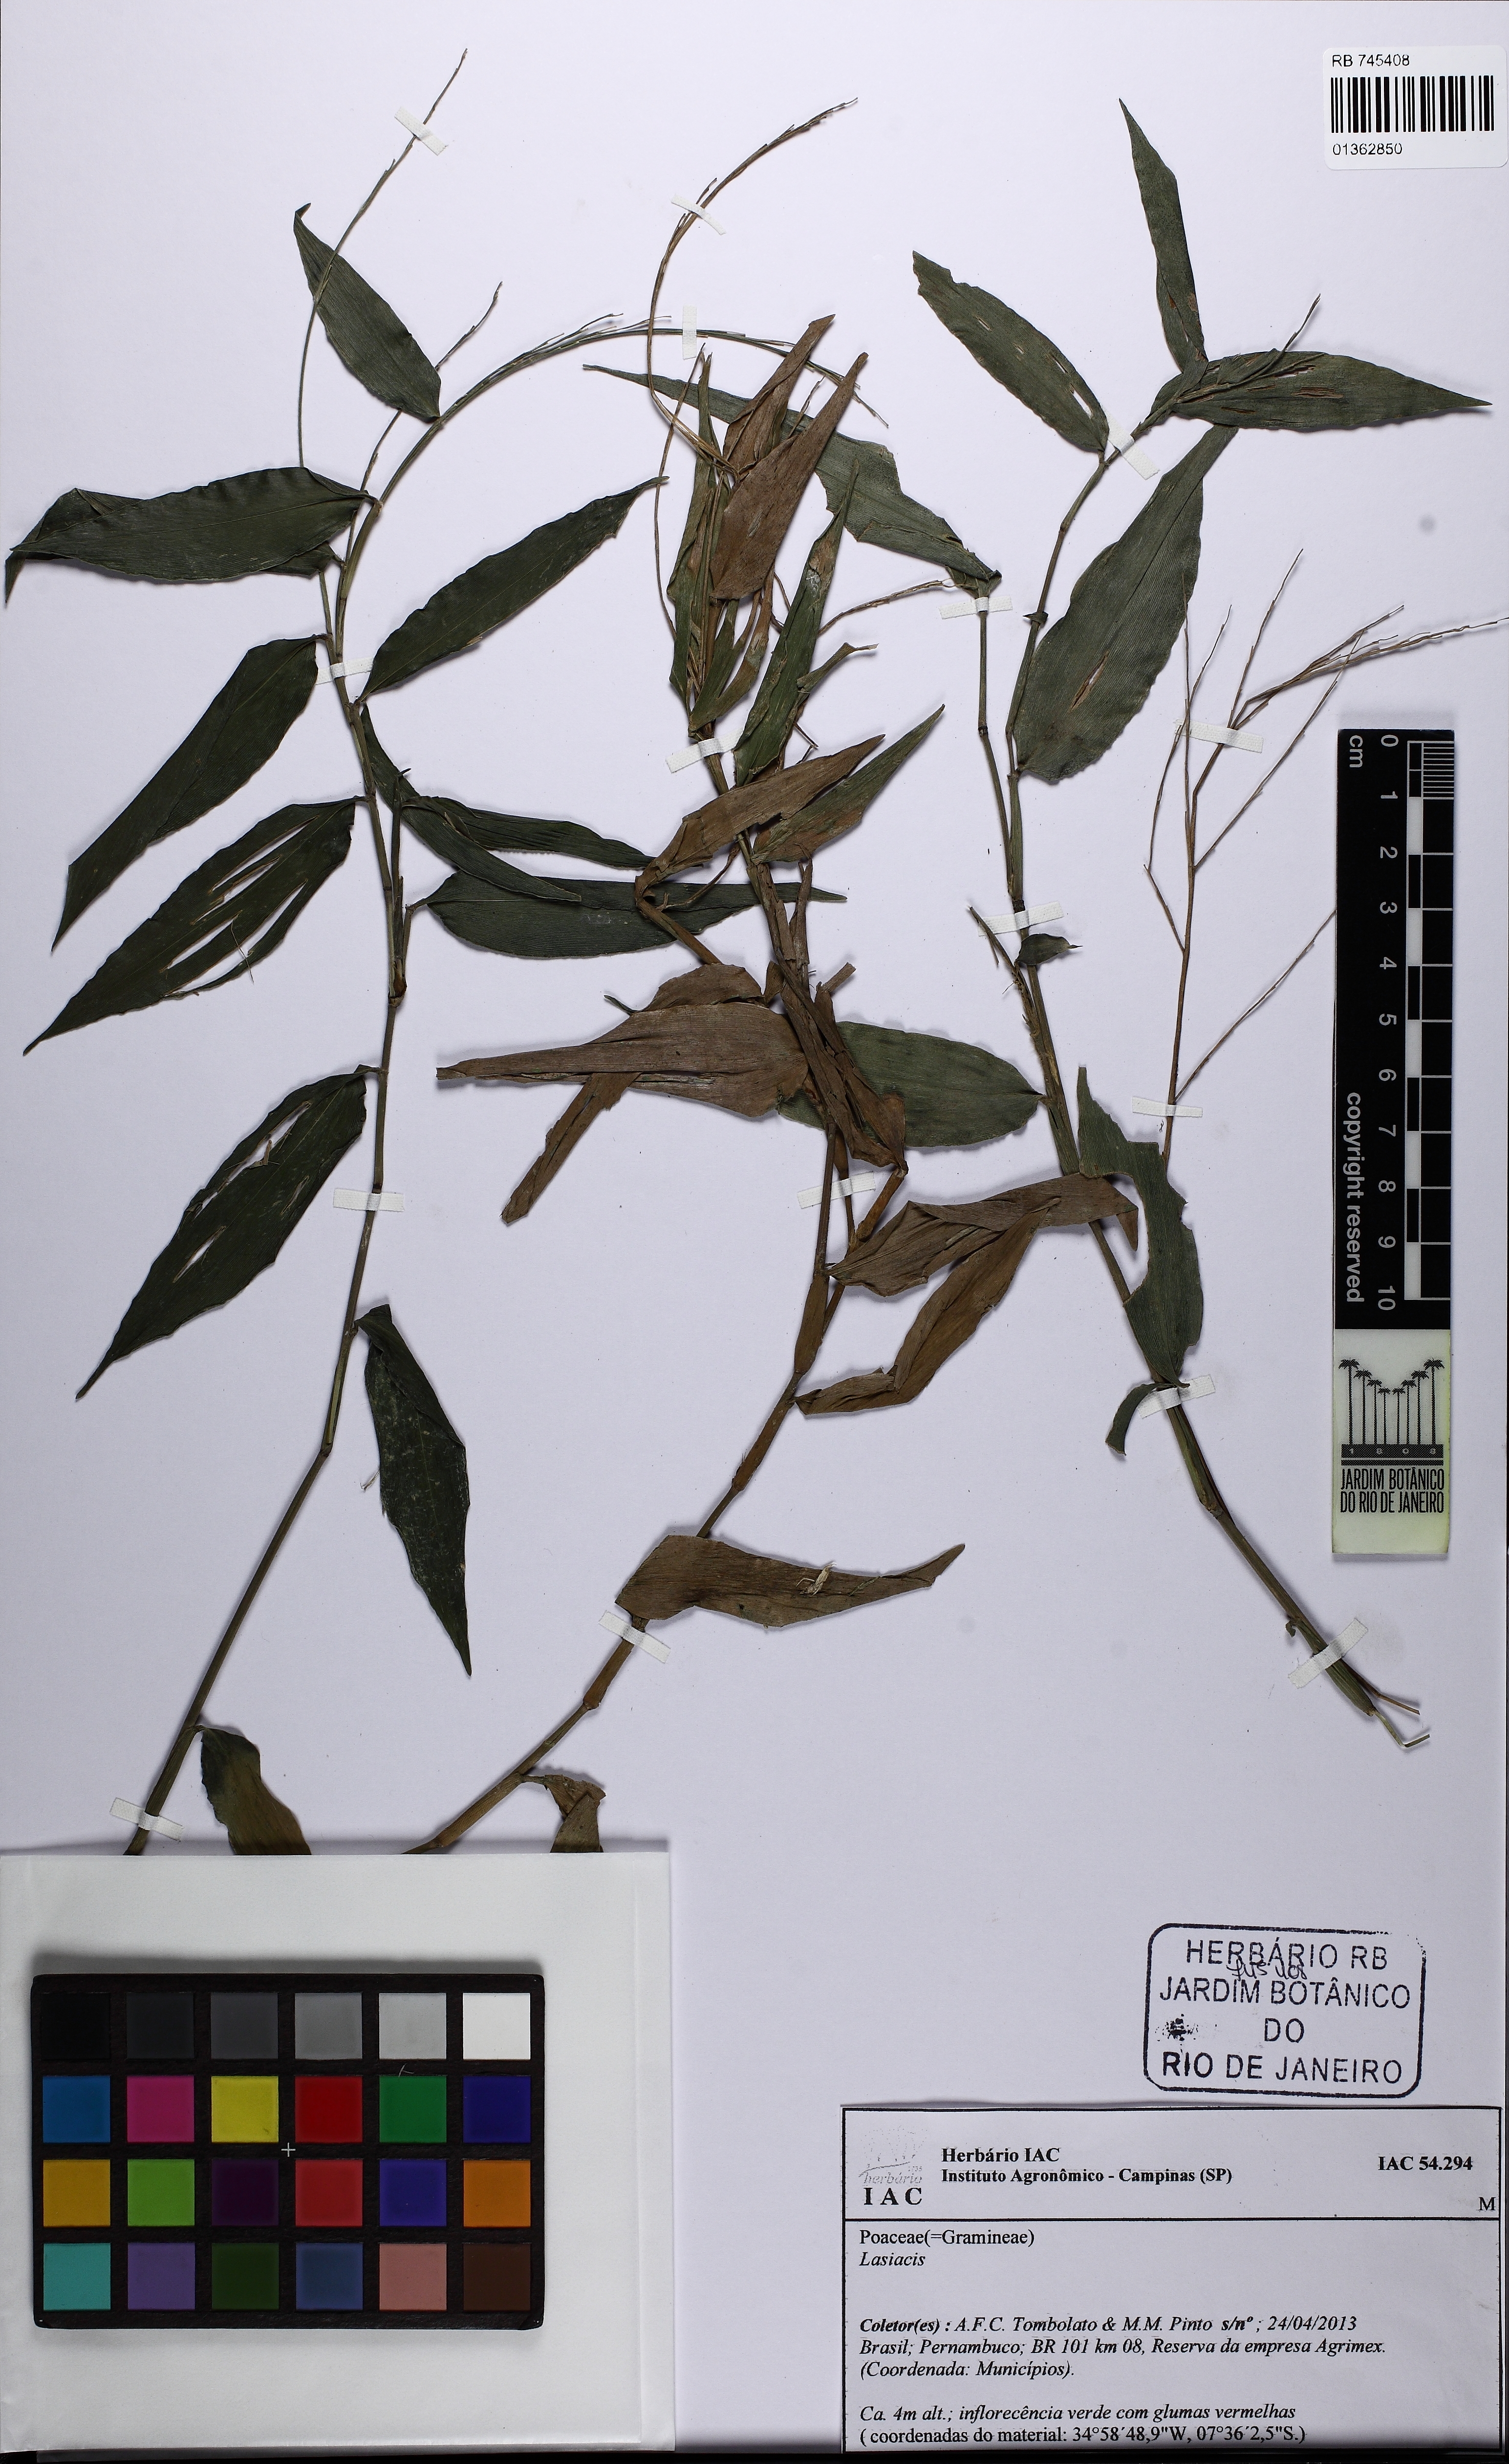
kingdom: Plantae
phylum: Tracheophyta
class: Liliopsida
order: Poales
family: Poaceae
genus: Lasiacis
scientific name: Lasiacis
